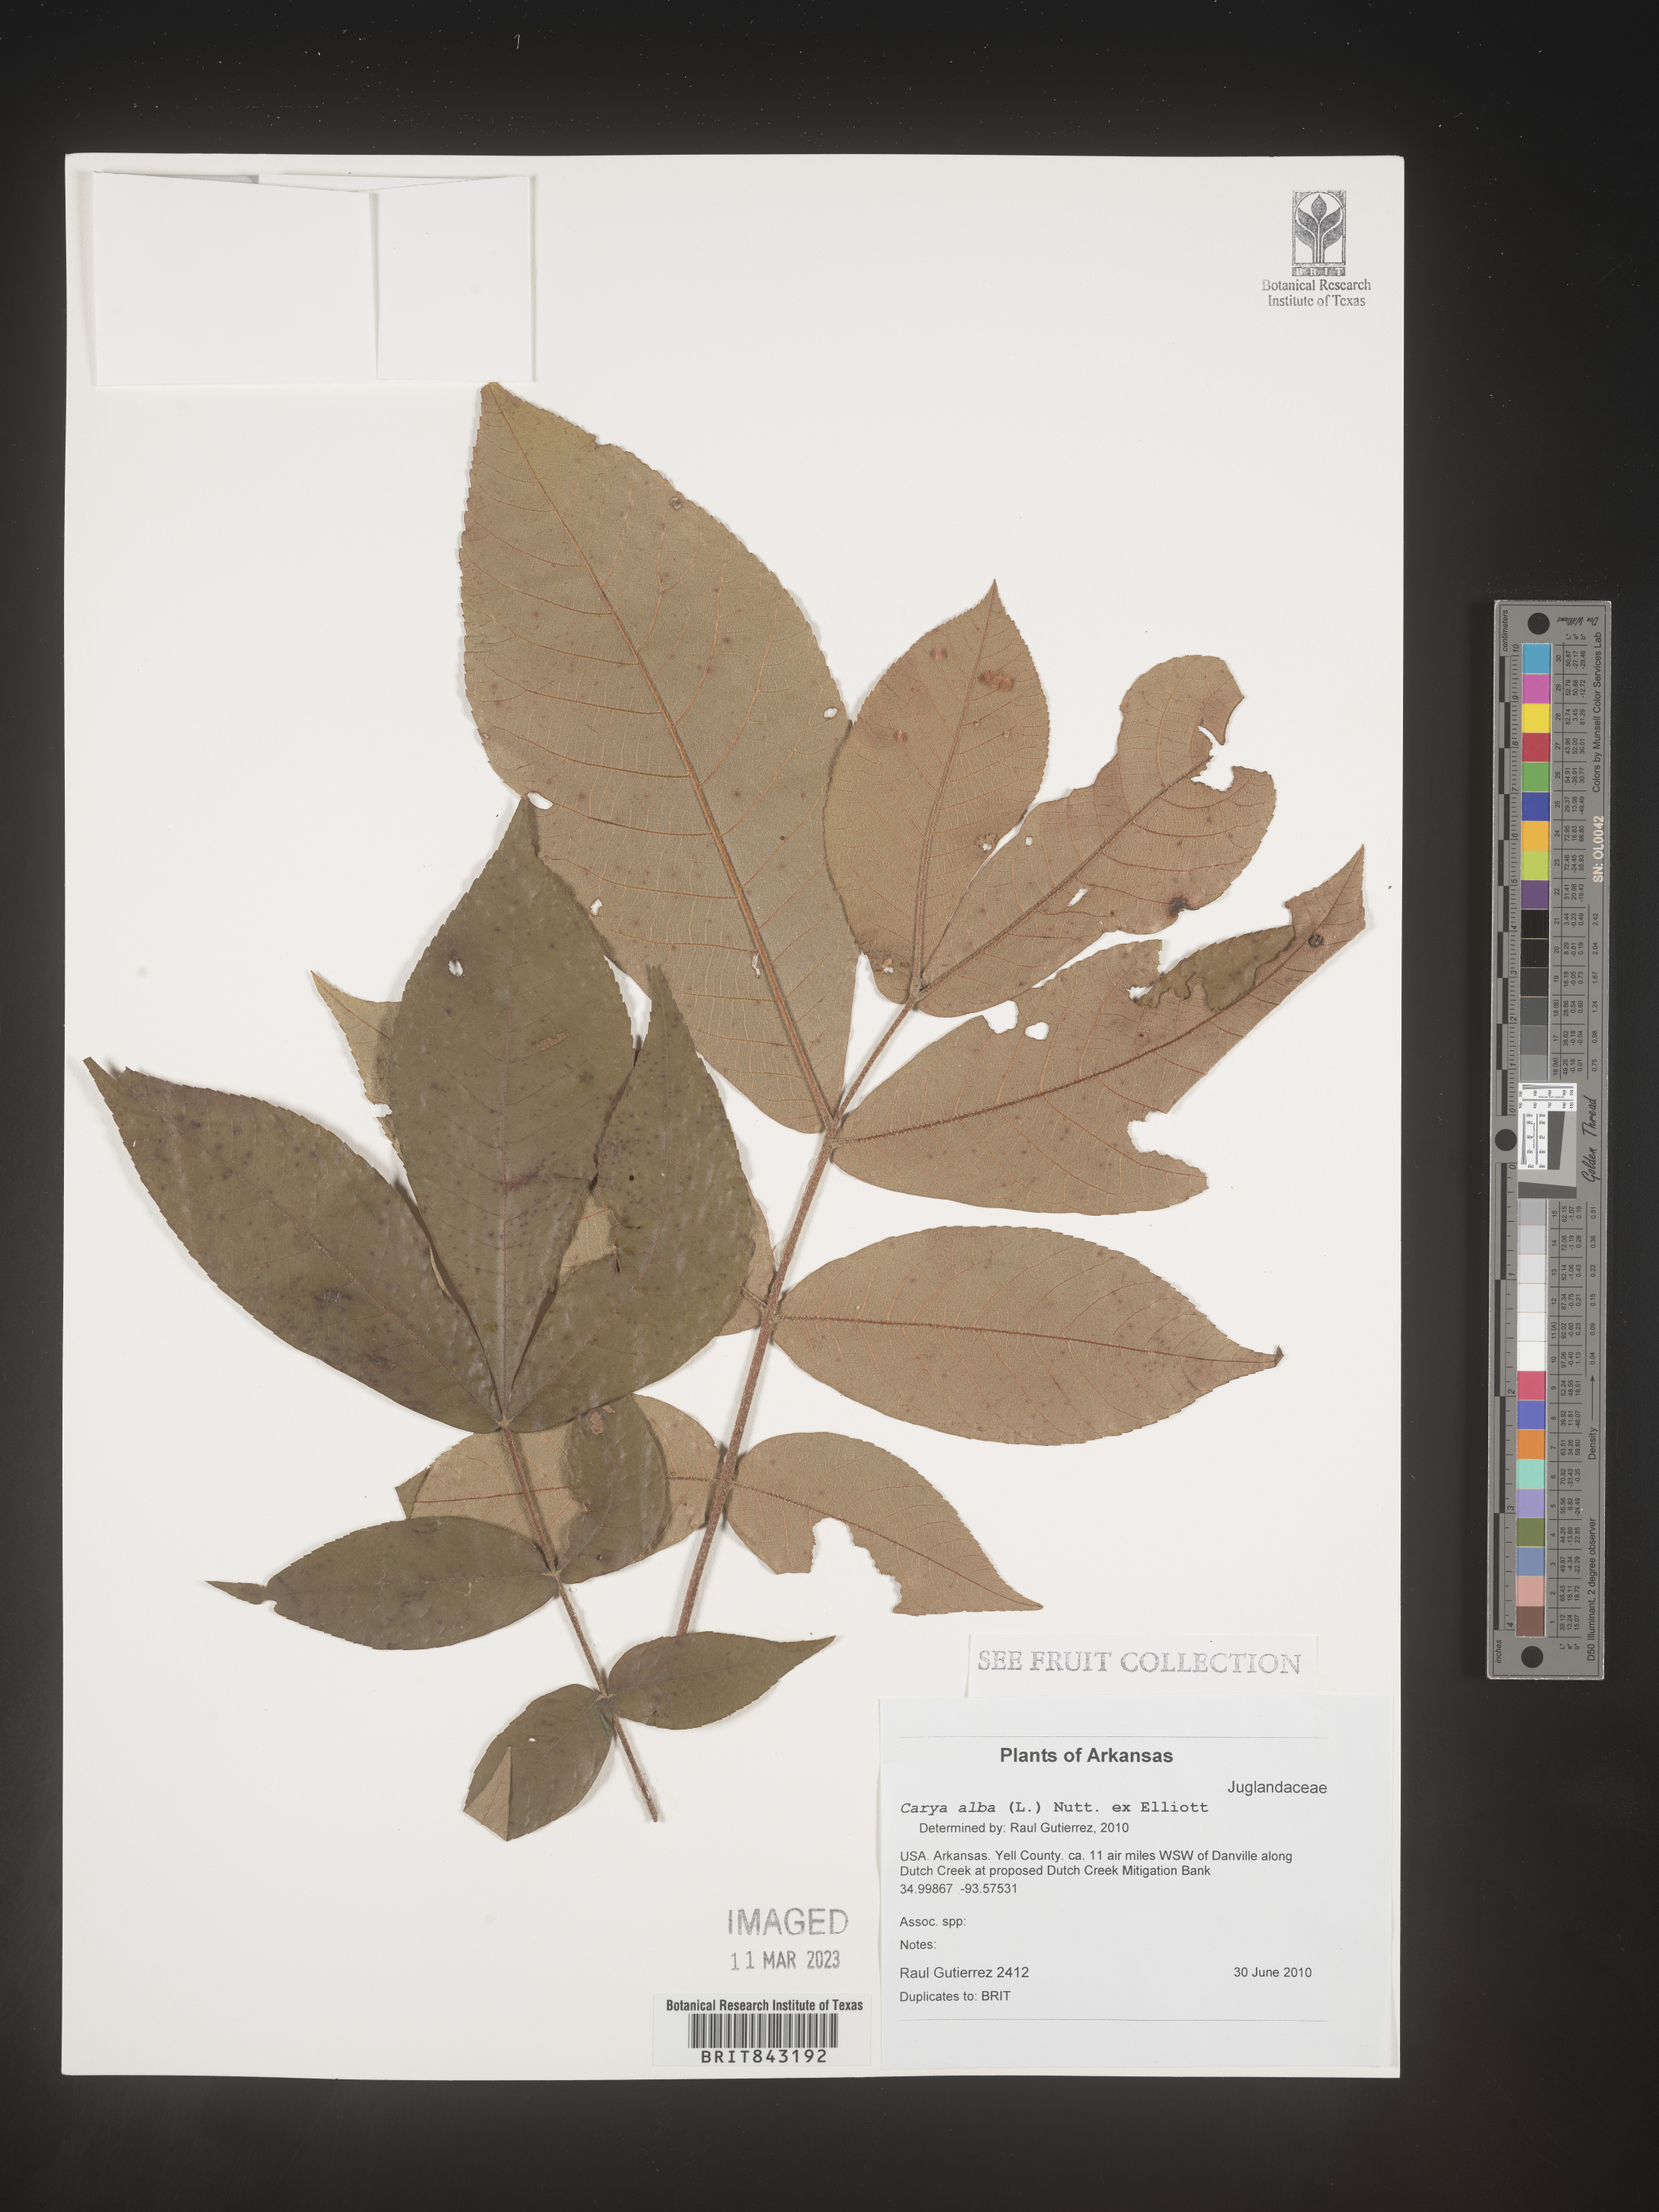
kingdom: Plantae
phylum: Tracheophyta
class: Magnoliopsida
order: Fagales
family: Juglandaceae
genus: Carya
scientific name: Carya alba
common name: Mockernut hickory
